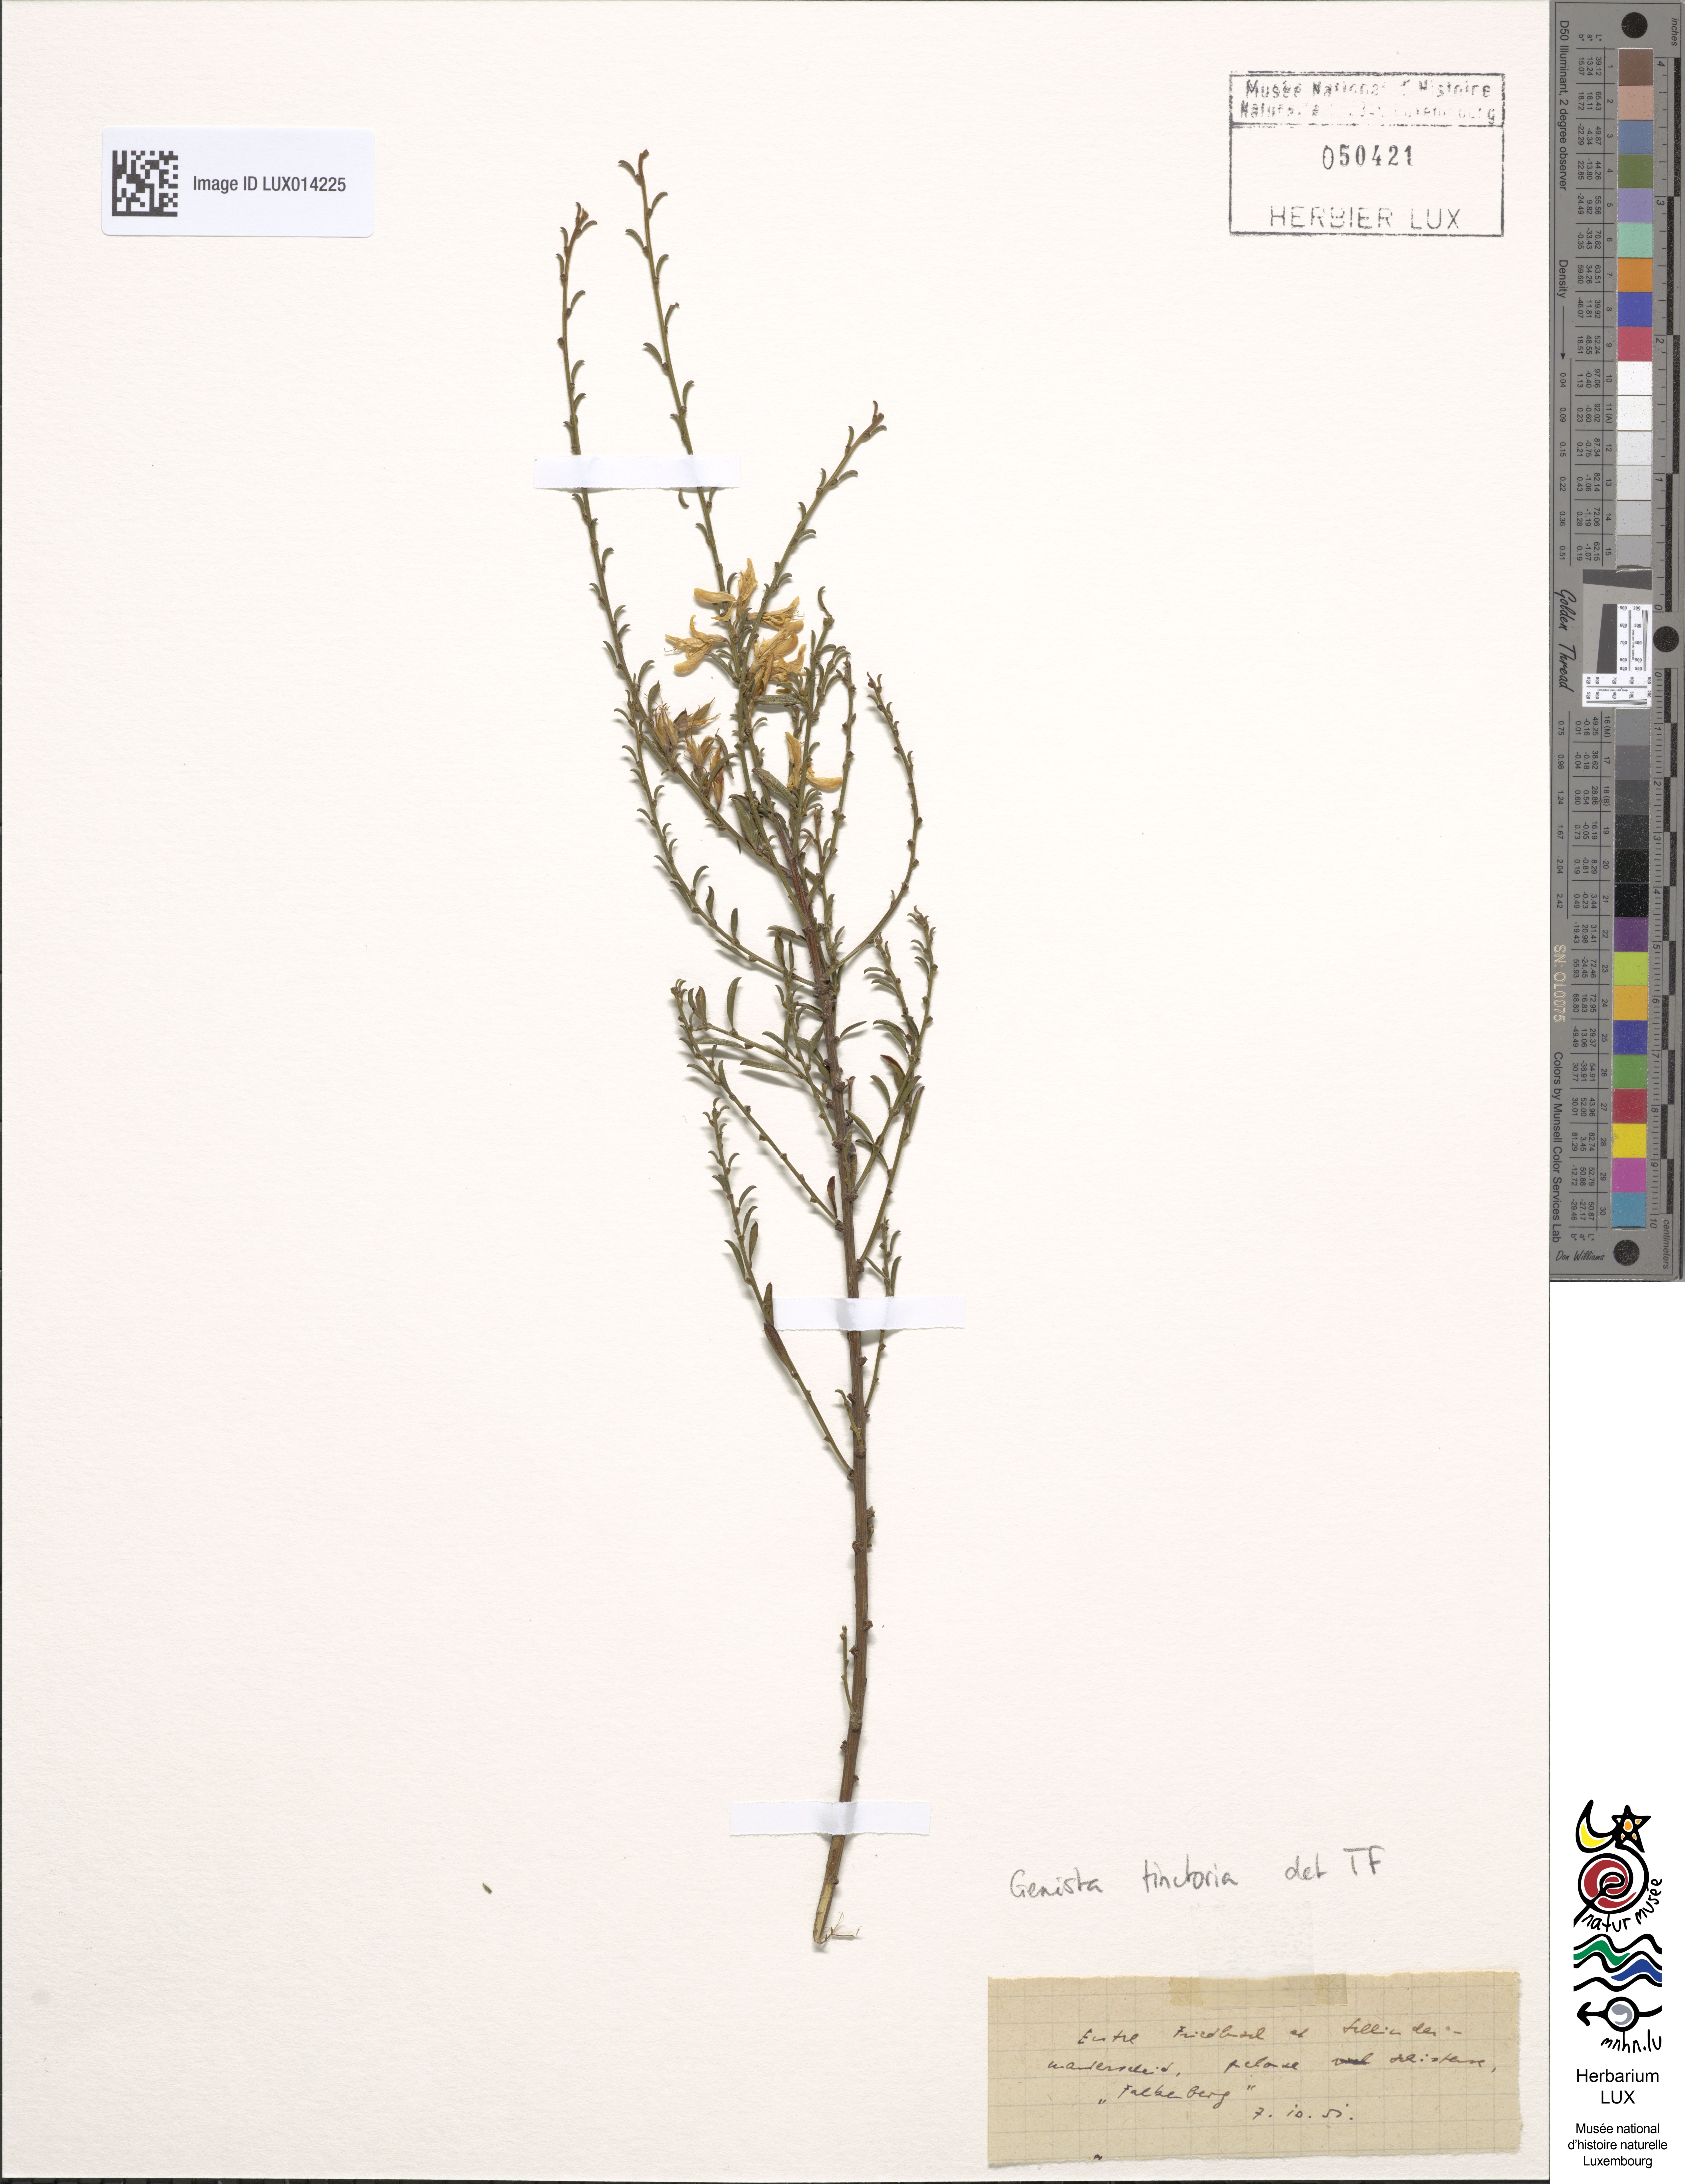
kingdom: Plantae
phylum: Tracheophyta
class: Magnoliopsida
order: Fabales
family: Fabaceae
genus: Genista
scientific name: Genista tinctoria
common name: Dyer's greenweed
